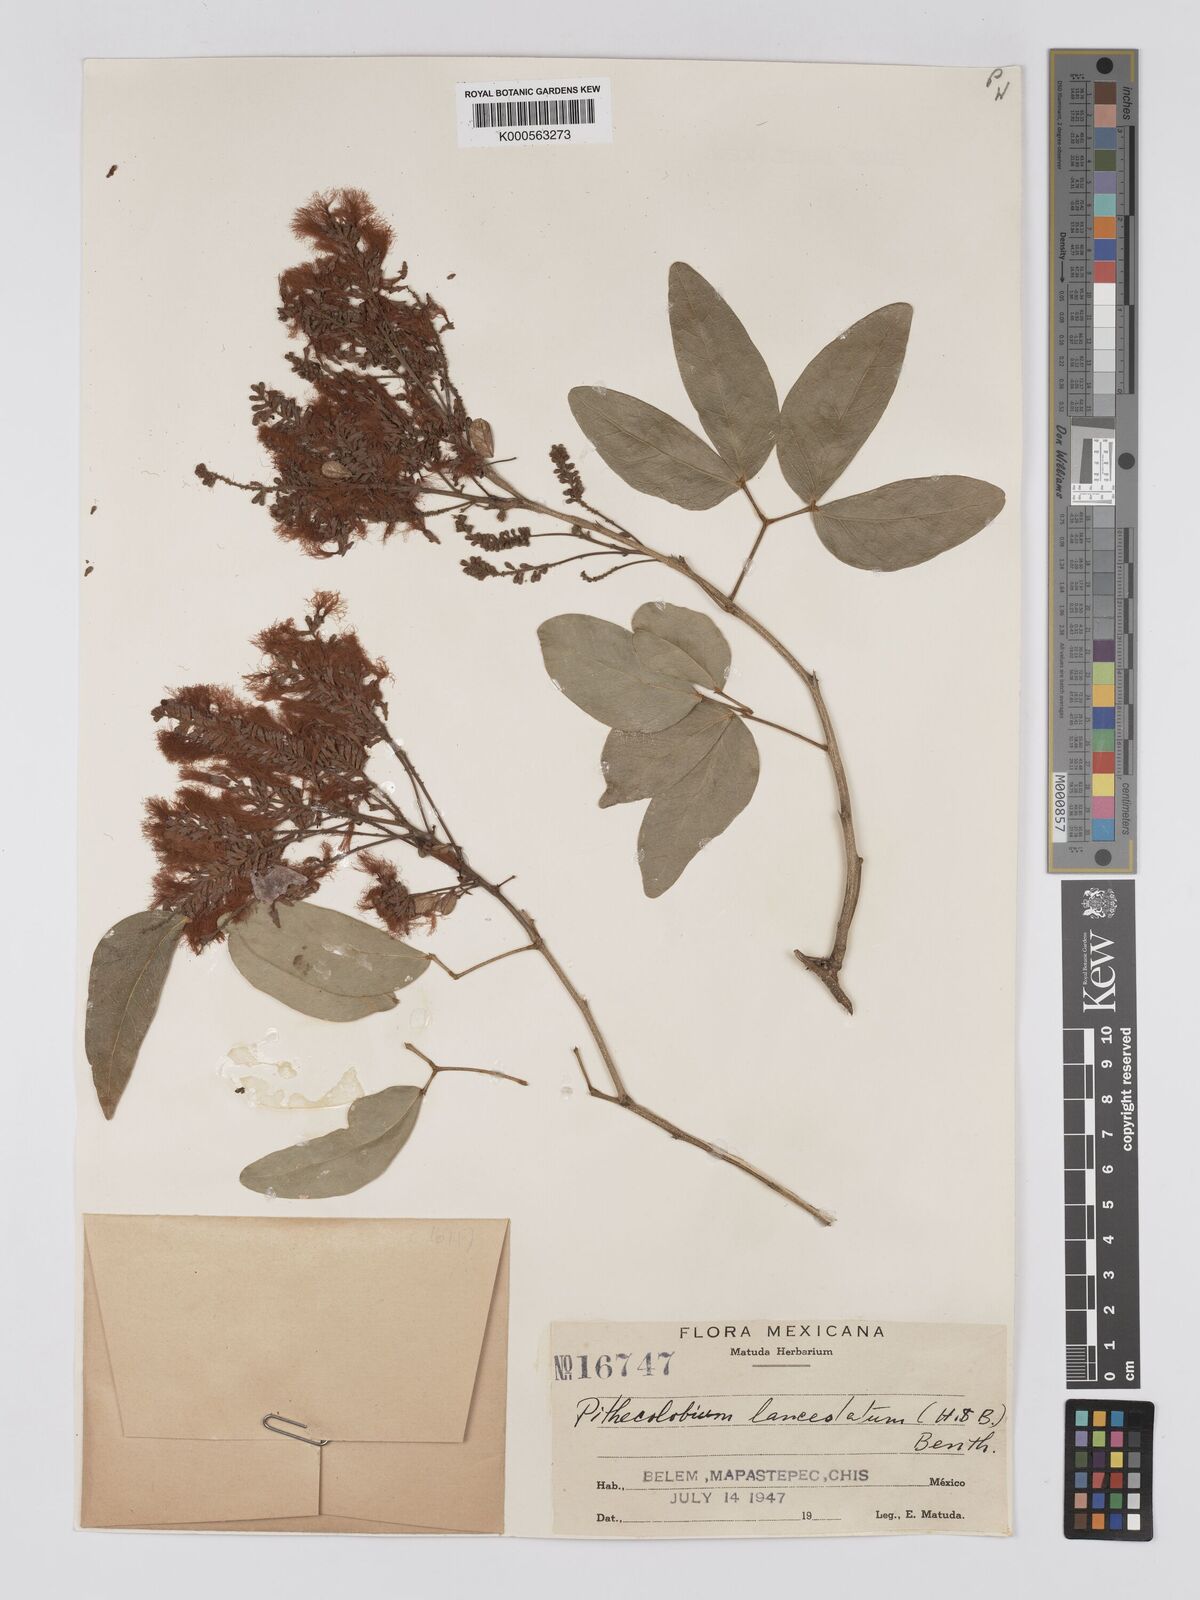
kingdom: Plantae
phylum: Tracheophyta
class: Magnoliopsida
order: Fabales
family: Fabaceae
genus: Pithecellobium
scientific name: Pithecellobium lanceolatum
